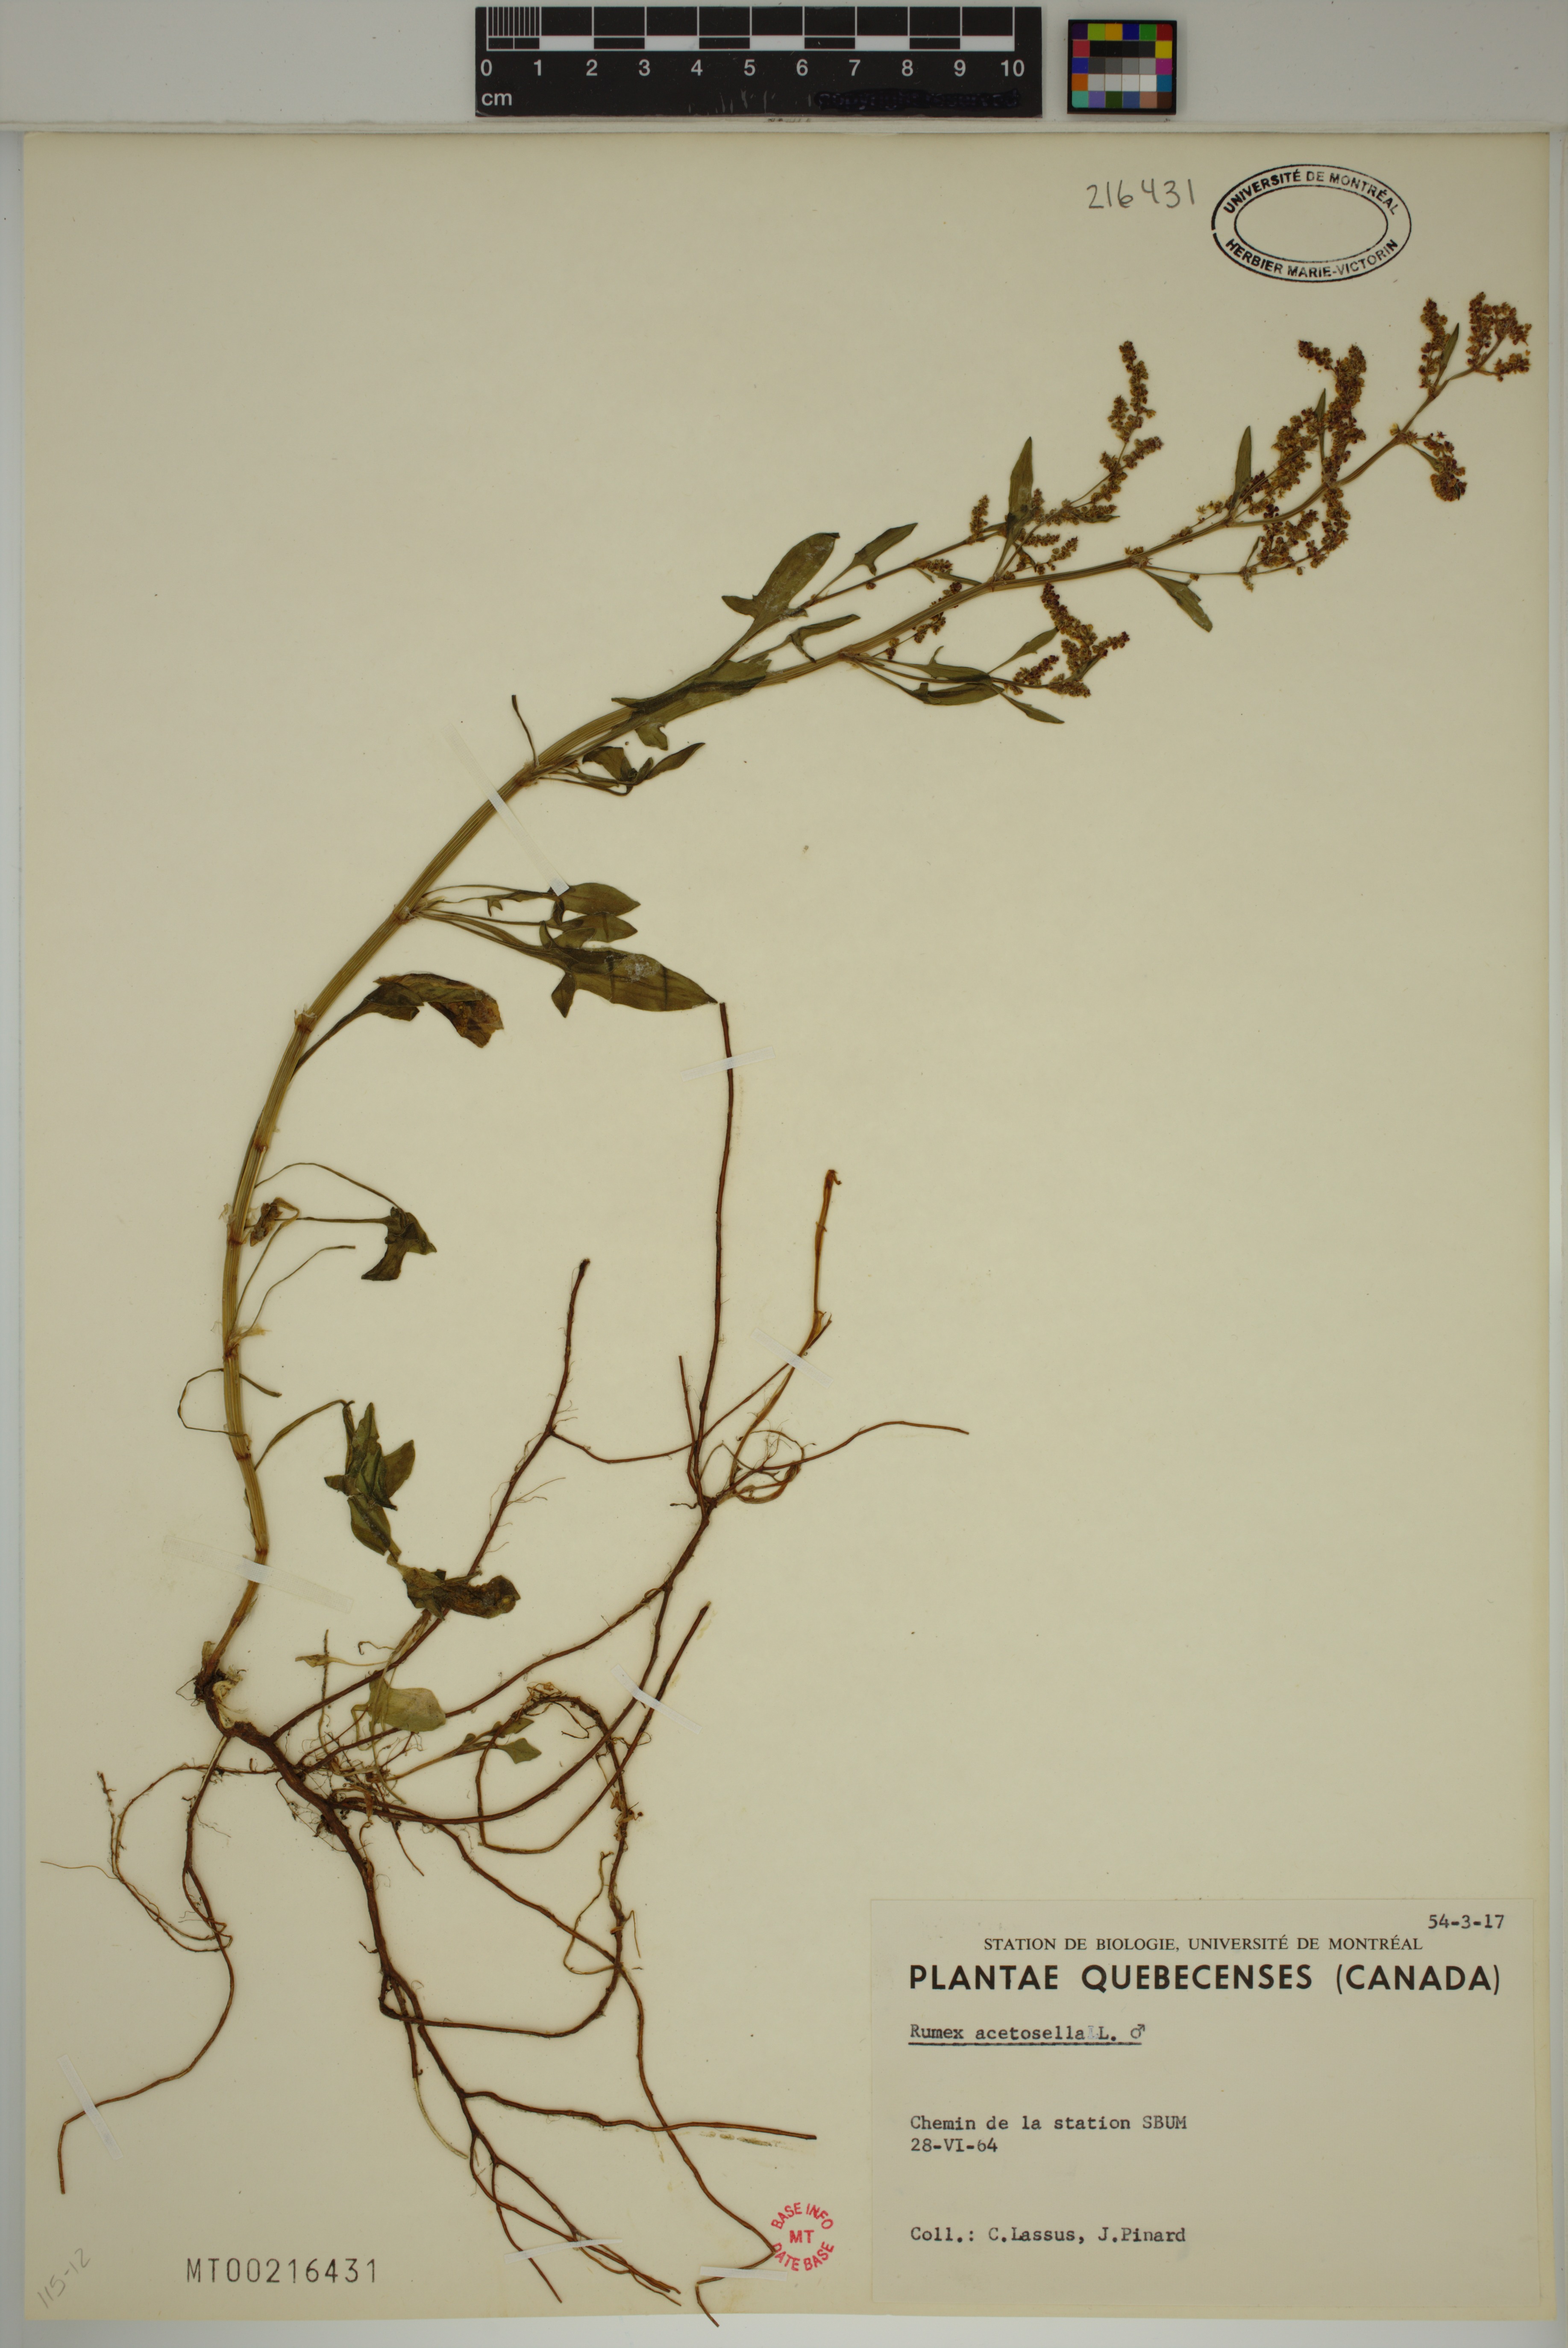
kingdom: Plantae
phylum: Tracheophyta
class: Magnoliopsida
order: Caryophyllales
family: Polygonaceae
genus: Rumex
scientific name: Rumex acetosella
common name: Common sheep sorrel
